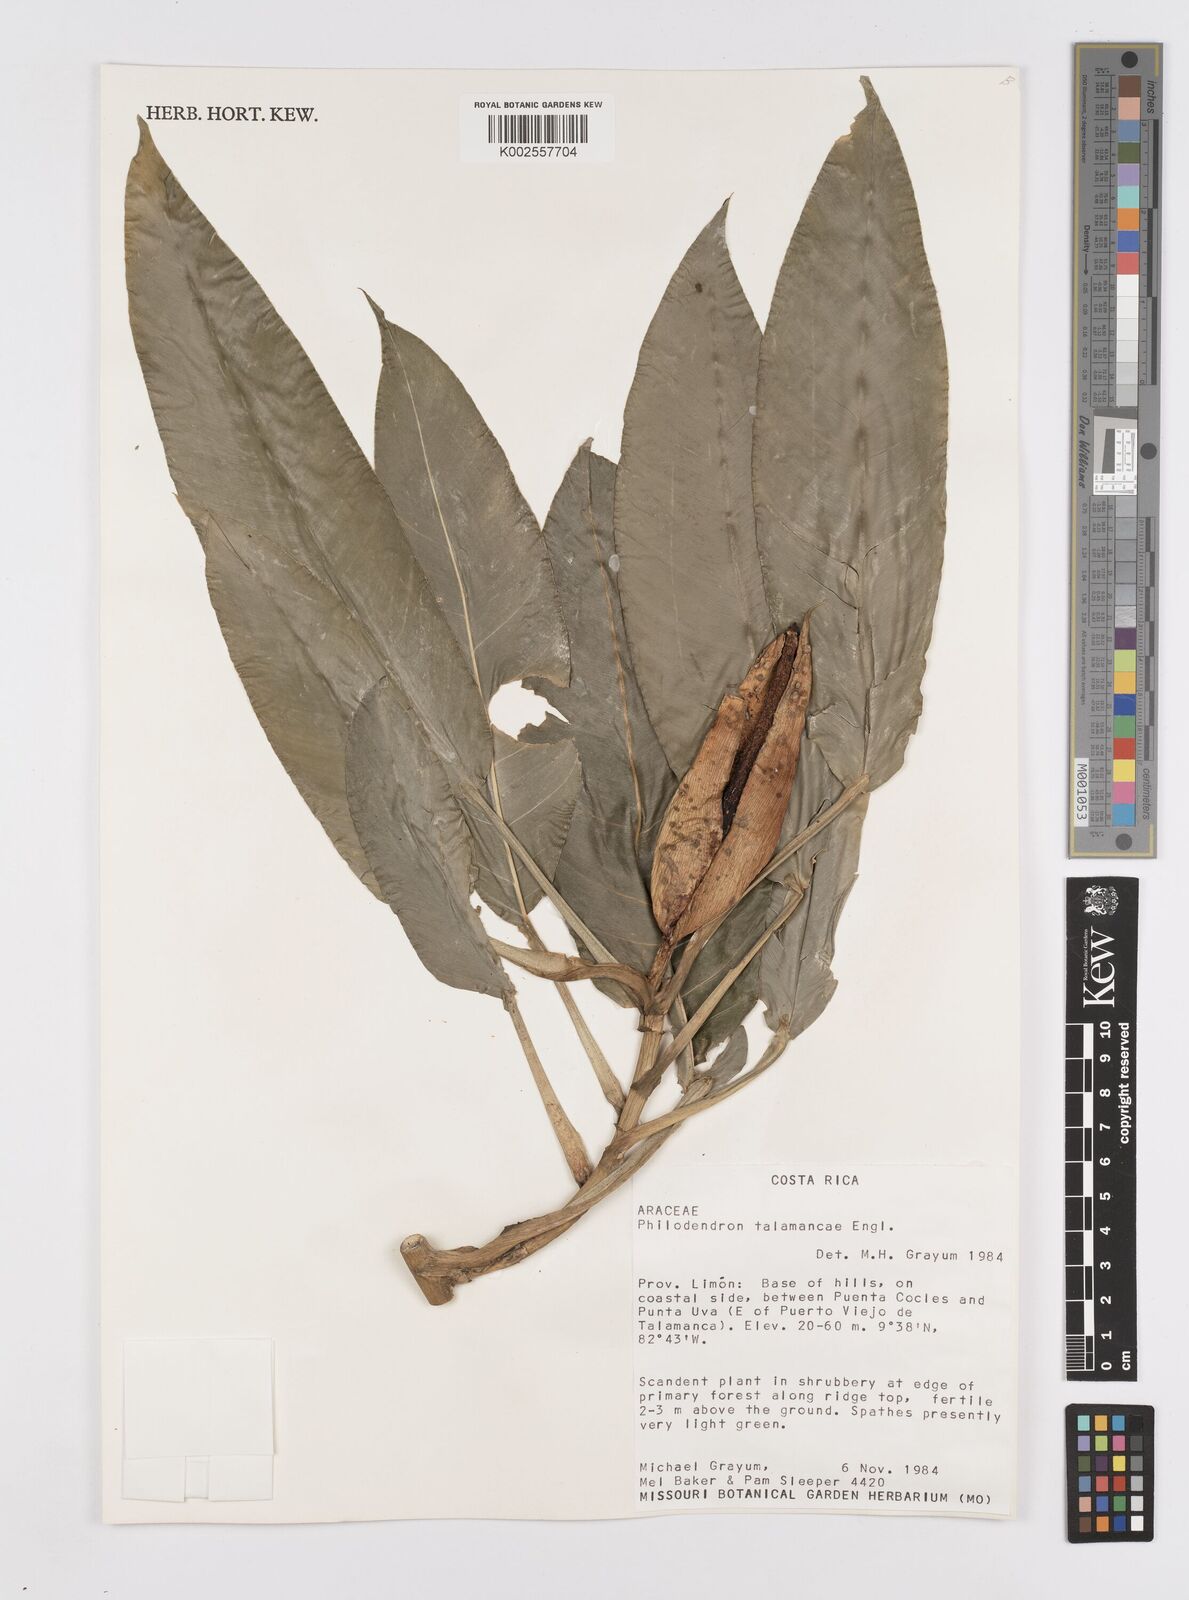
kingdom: Plantae
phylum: Tracheophyta
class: Liliopsida
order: Alismatales
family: Araceae
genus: Philodendron
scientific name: Philodendron schottii
